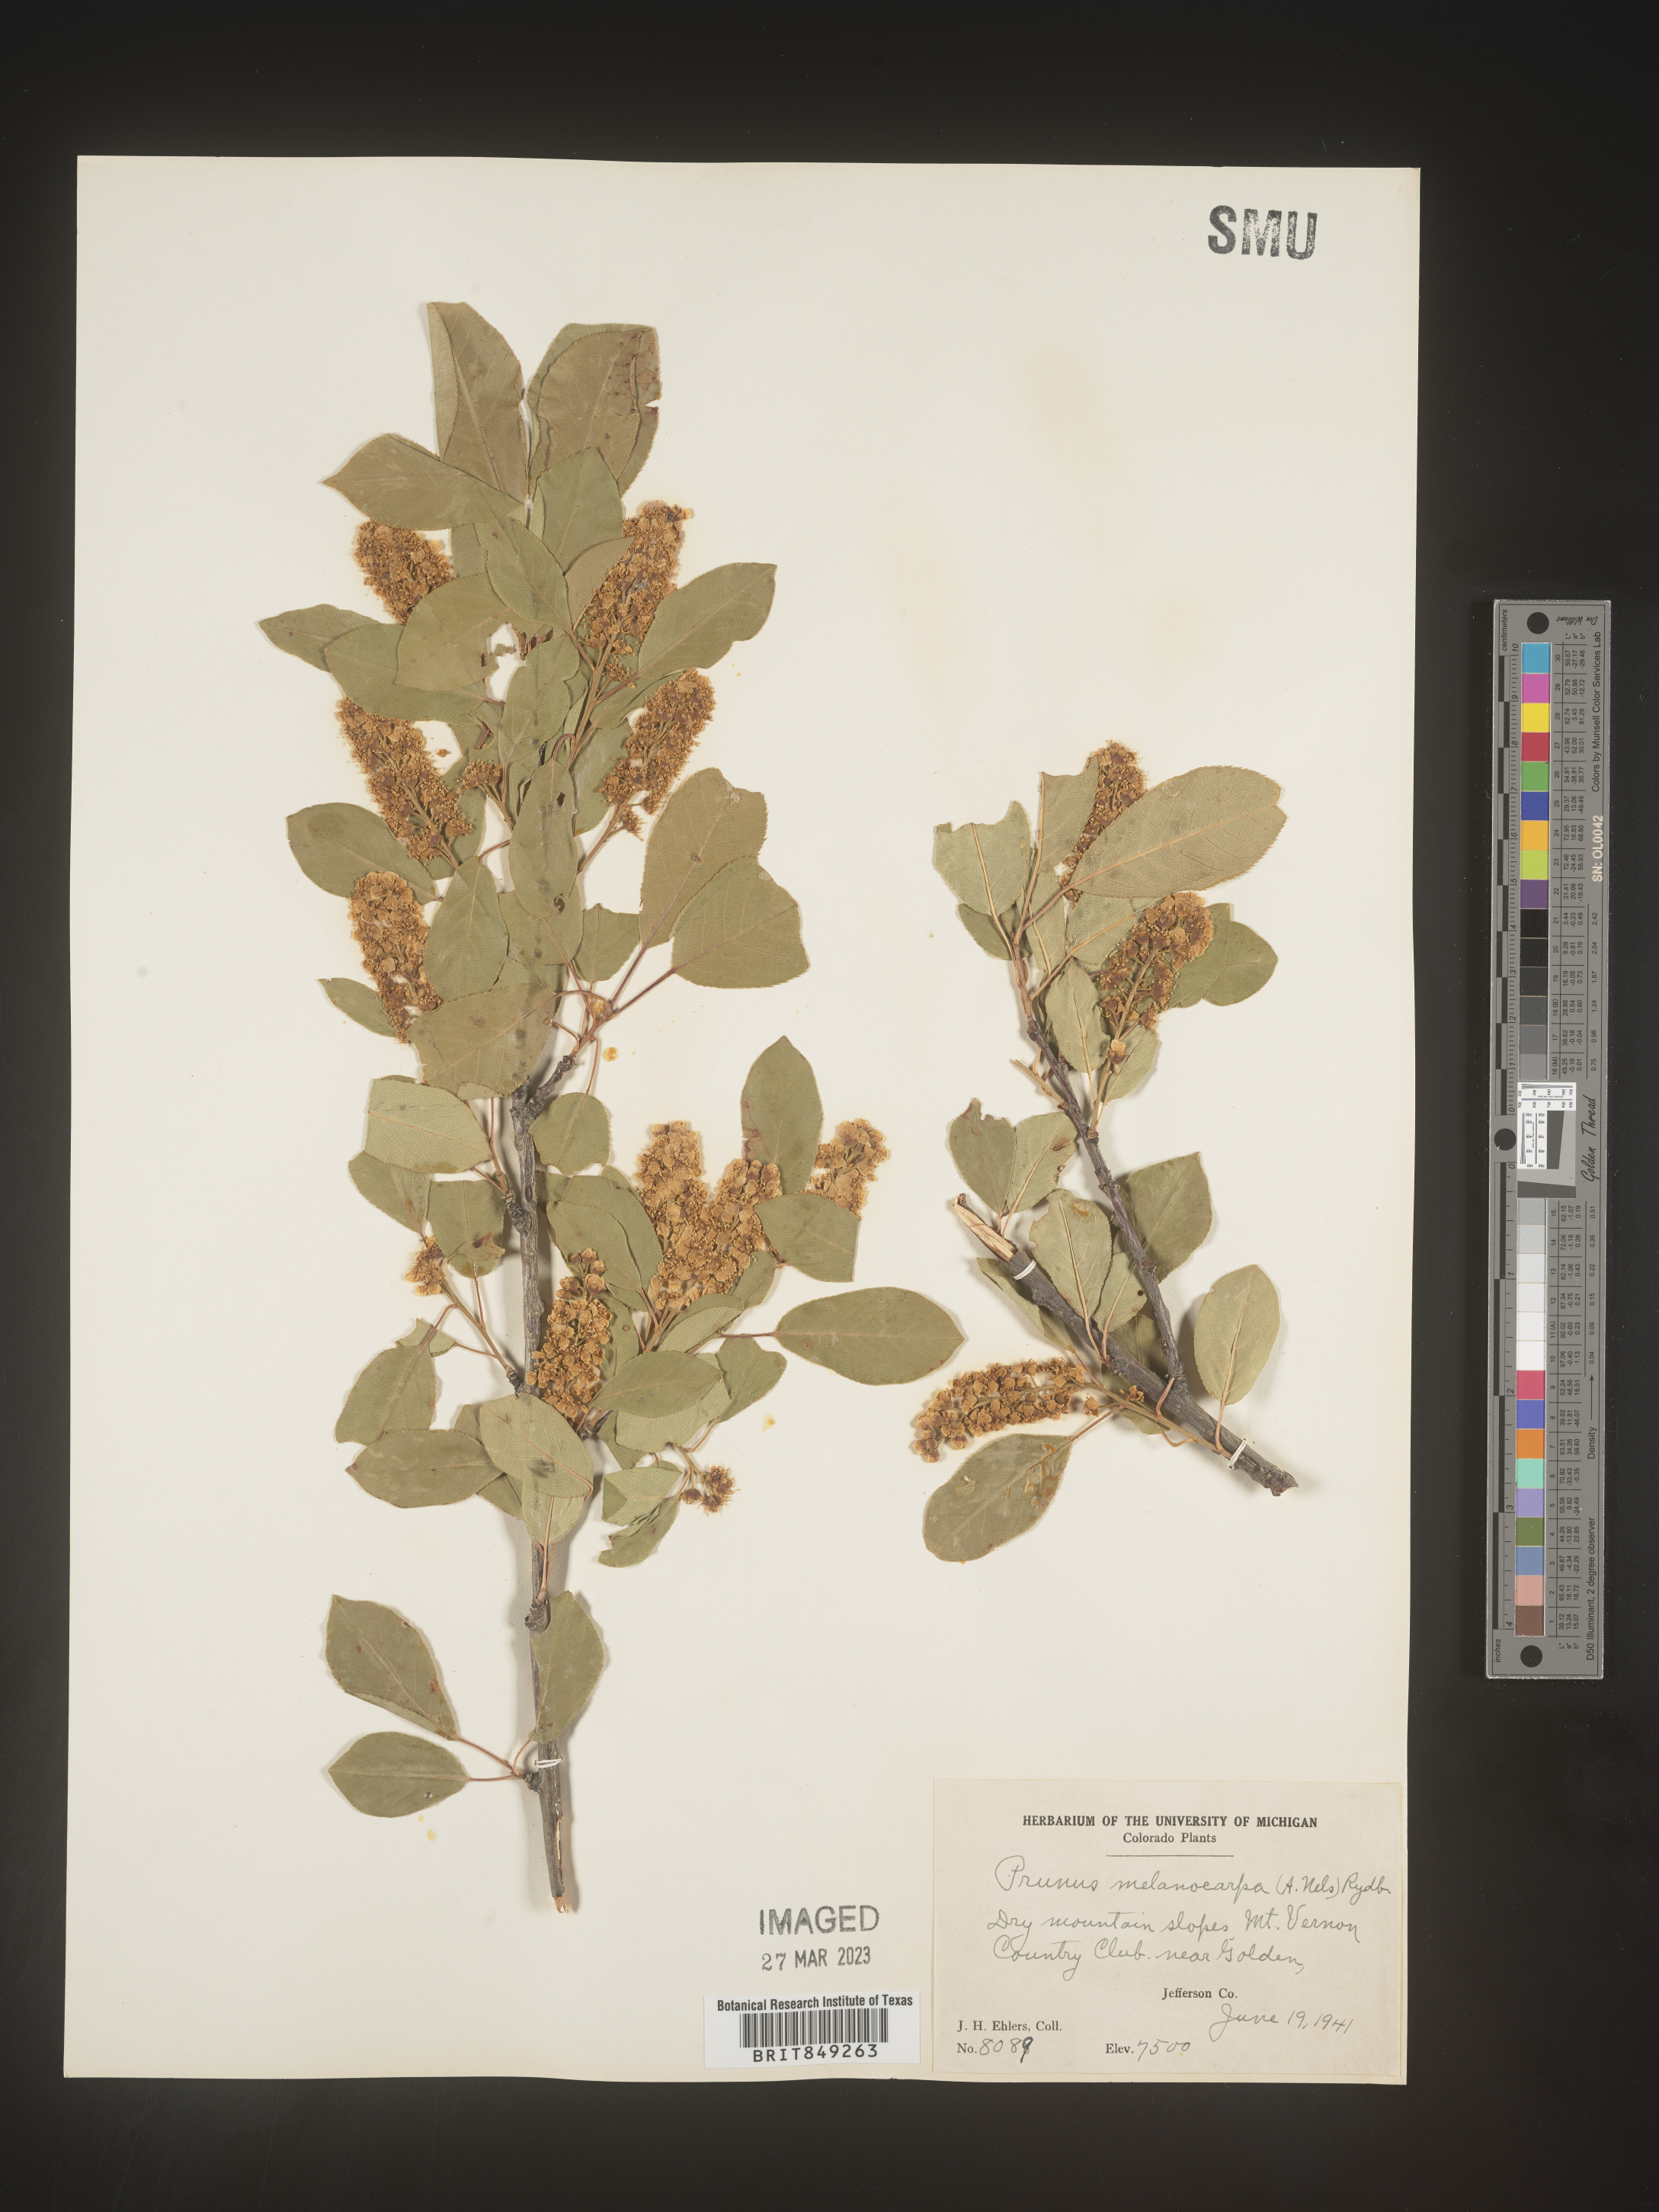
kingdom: Plantae
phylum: Tracheophyta
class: Magnoliopsida
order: Rosales
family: Rosaceae
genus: Prunus
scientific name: Prunus
